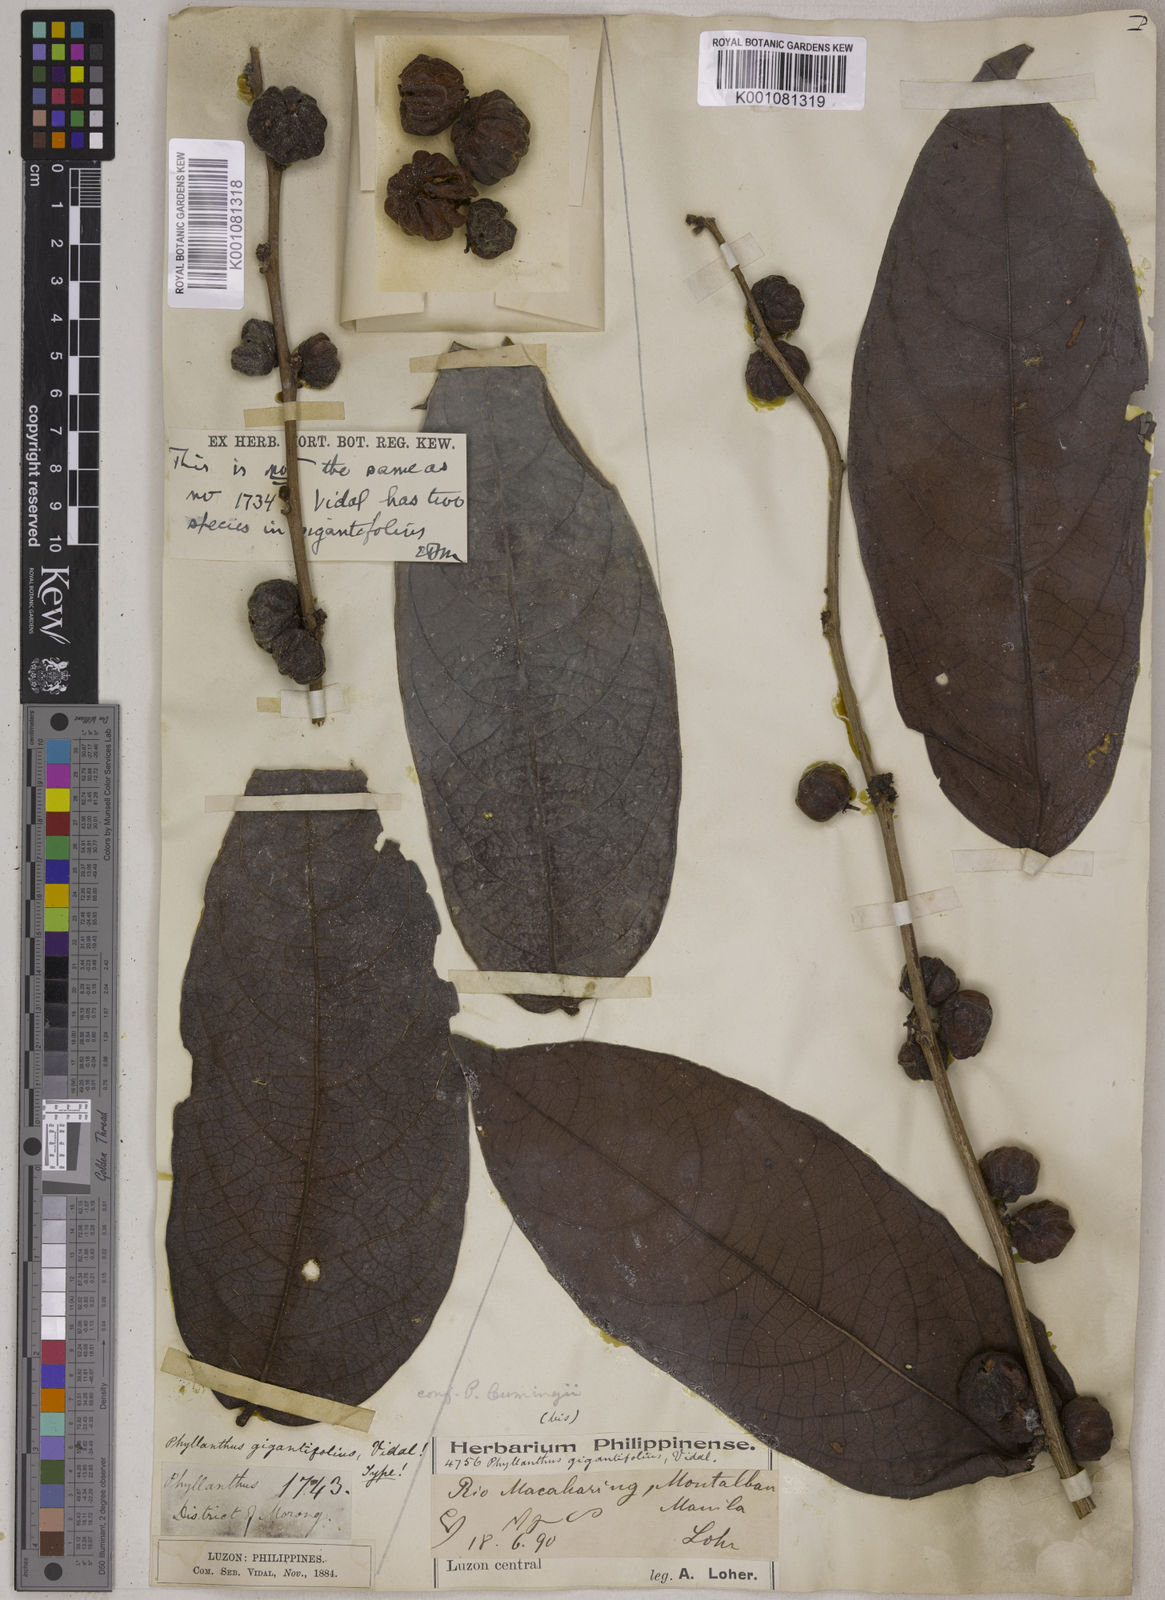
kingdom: Plantae
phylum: Tracheophyta
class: Magnoliopsida
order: Malpighiales
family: Phyllanthaceae
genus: Glochidion
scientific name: Glochidion gigantifolium
